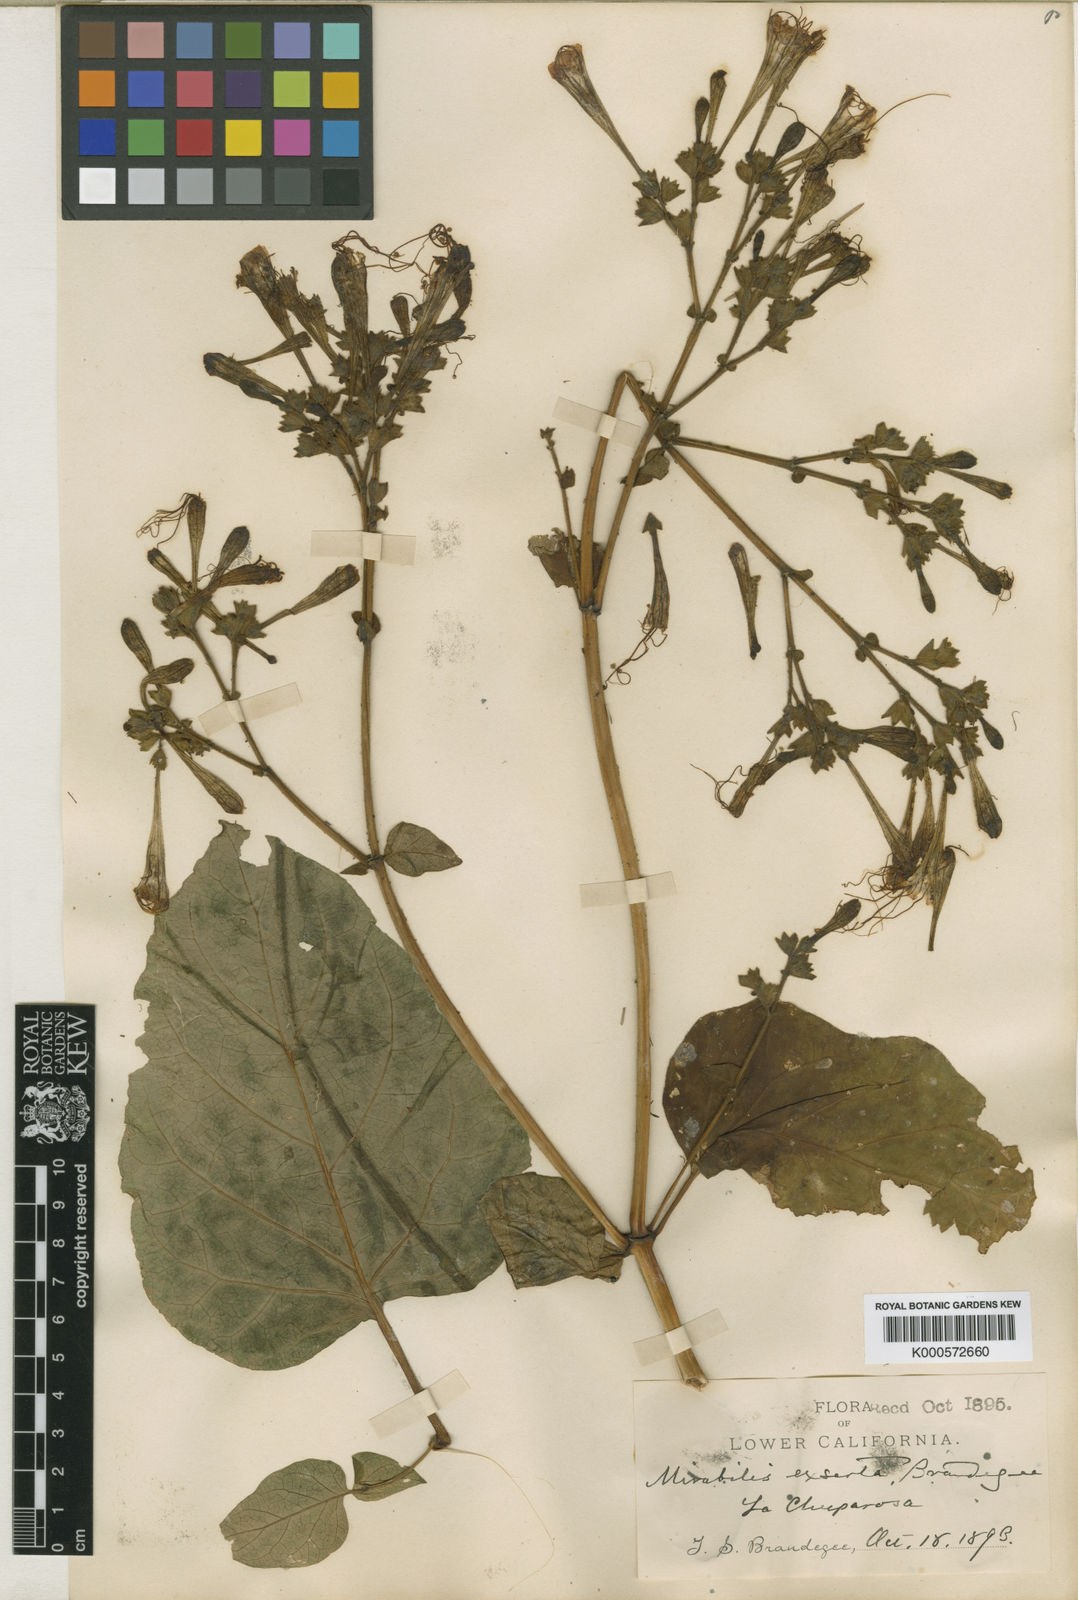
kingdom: Plantae
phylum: Tracheophyta
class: Magnoliopsida
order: Caryophyllales
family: Nyctaginaceae
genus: Mirabilis
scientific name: Mirabilis exserta
